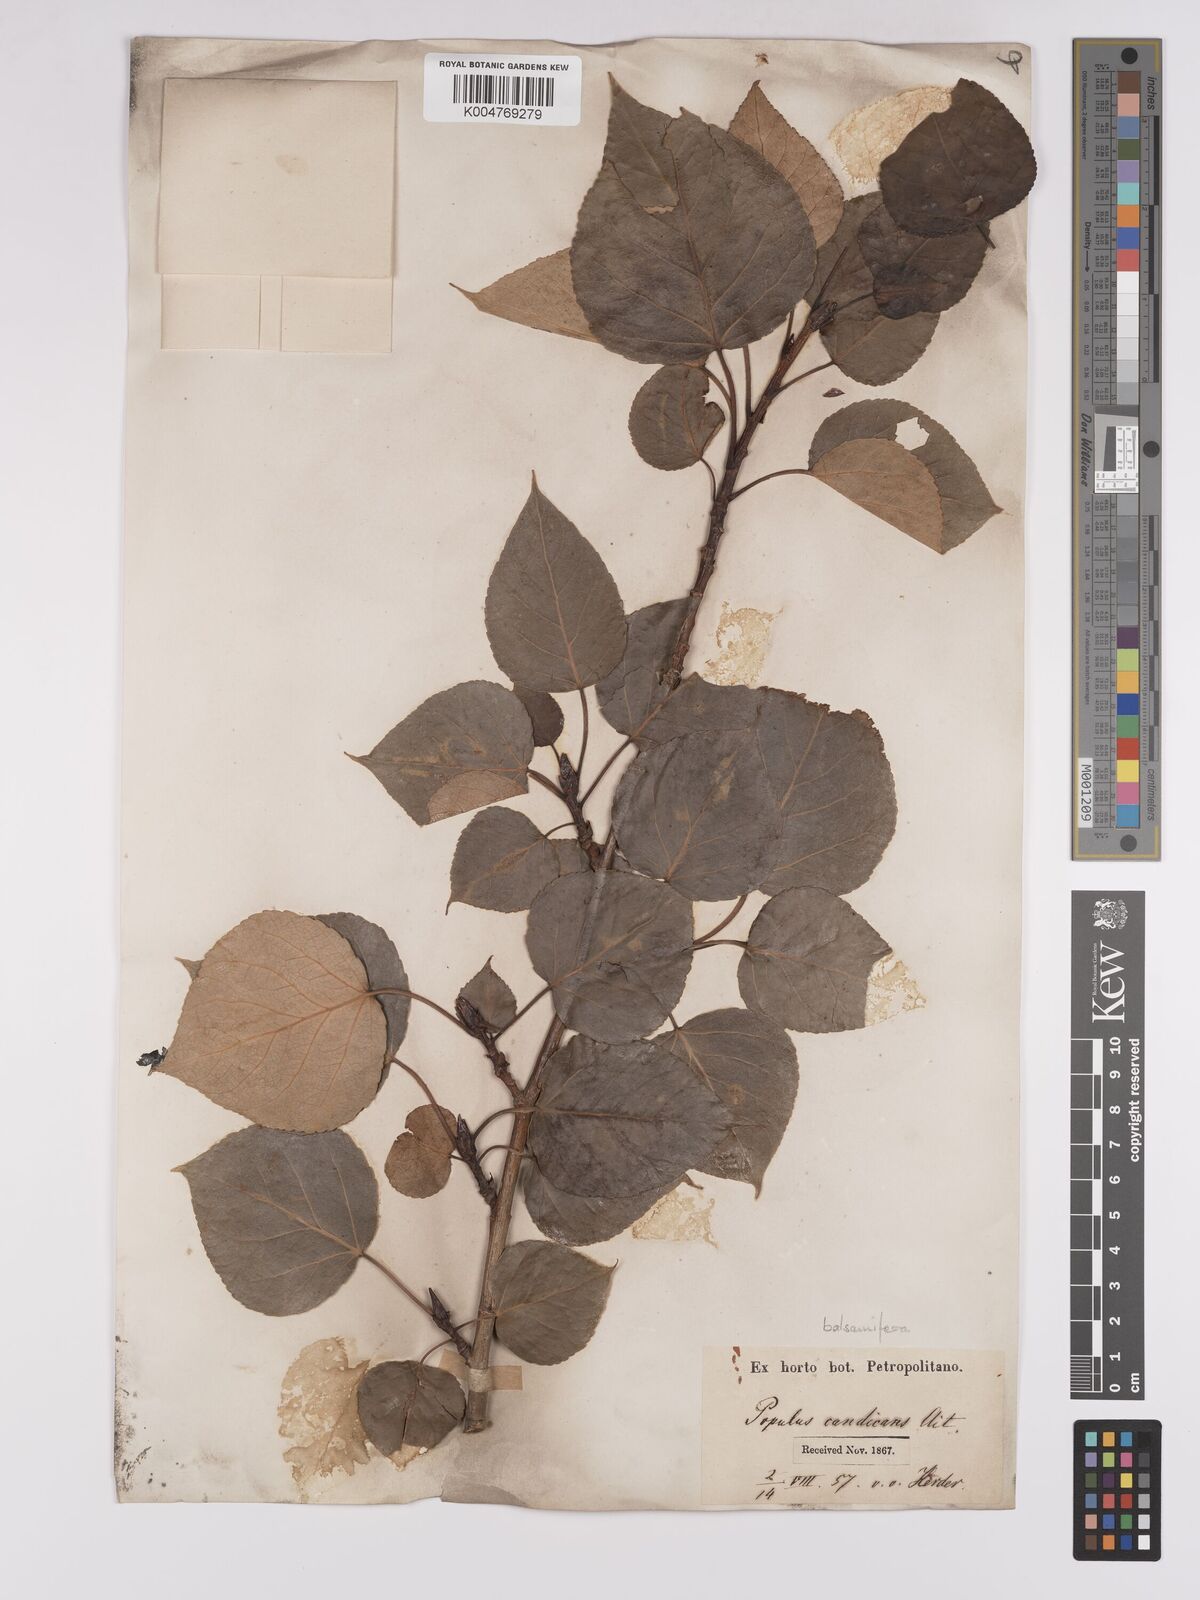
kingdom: Plantae
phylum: Tracheophyta
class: Magnoliopsida
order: Malpighiales
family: Salicaceae
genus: Populus
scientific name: Populus balsamifera
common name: Balsam poplar
